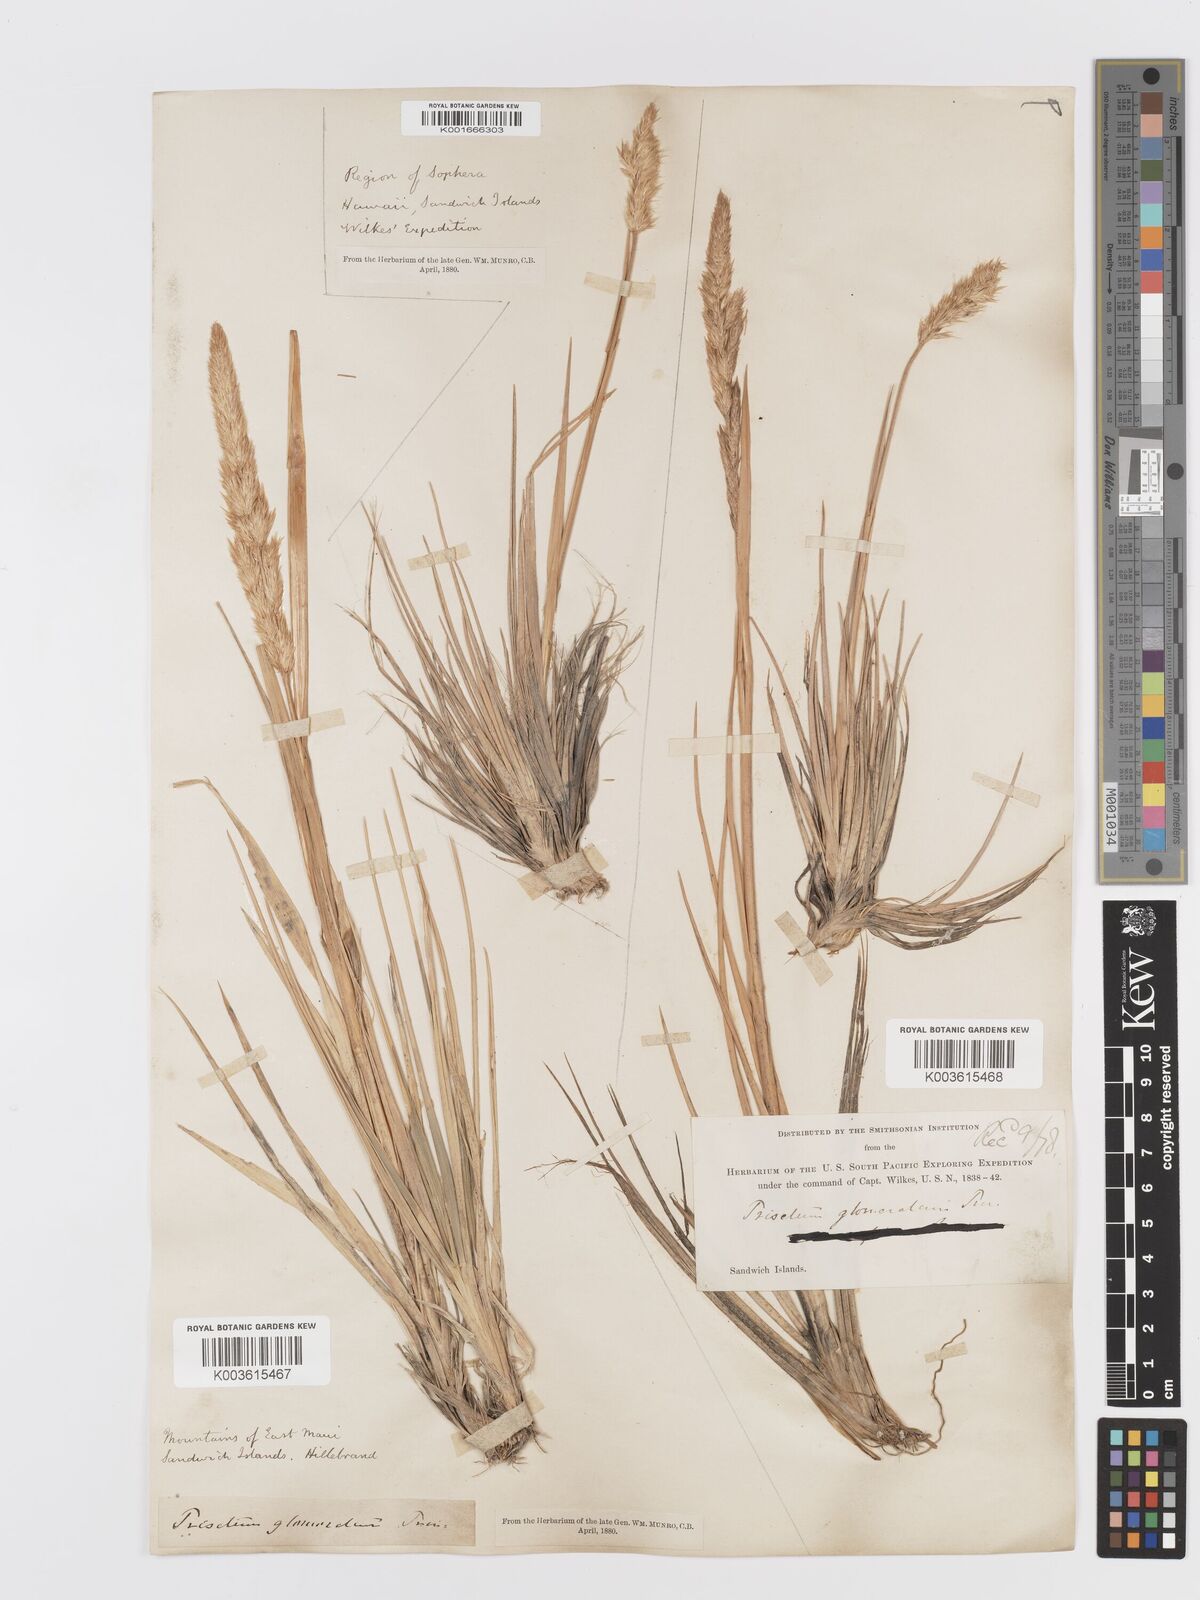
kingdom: Plantae
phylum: Tracheophyta
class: Liliopsida
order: Poales
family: Poaceae
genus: Trisetum
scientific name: Trisetum glomeratum
